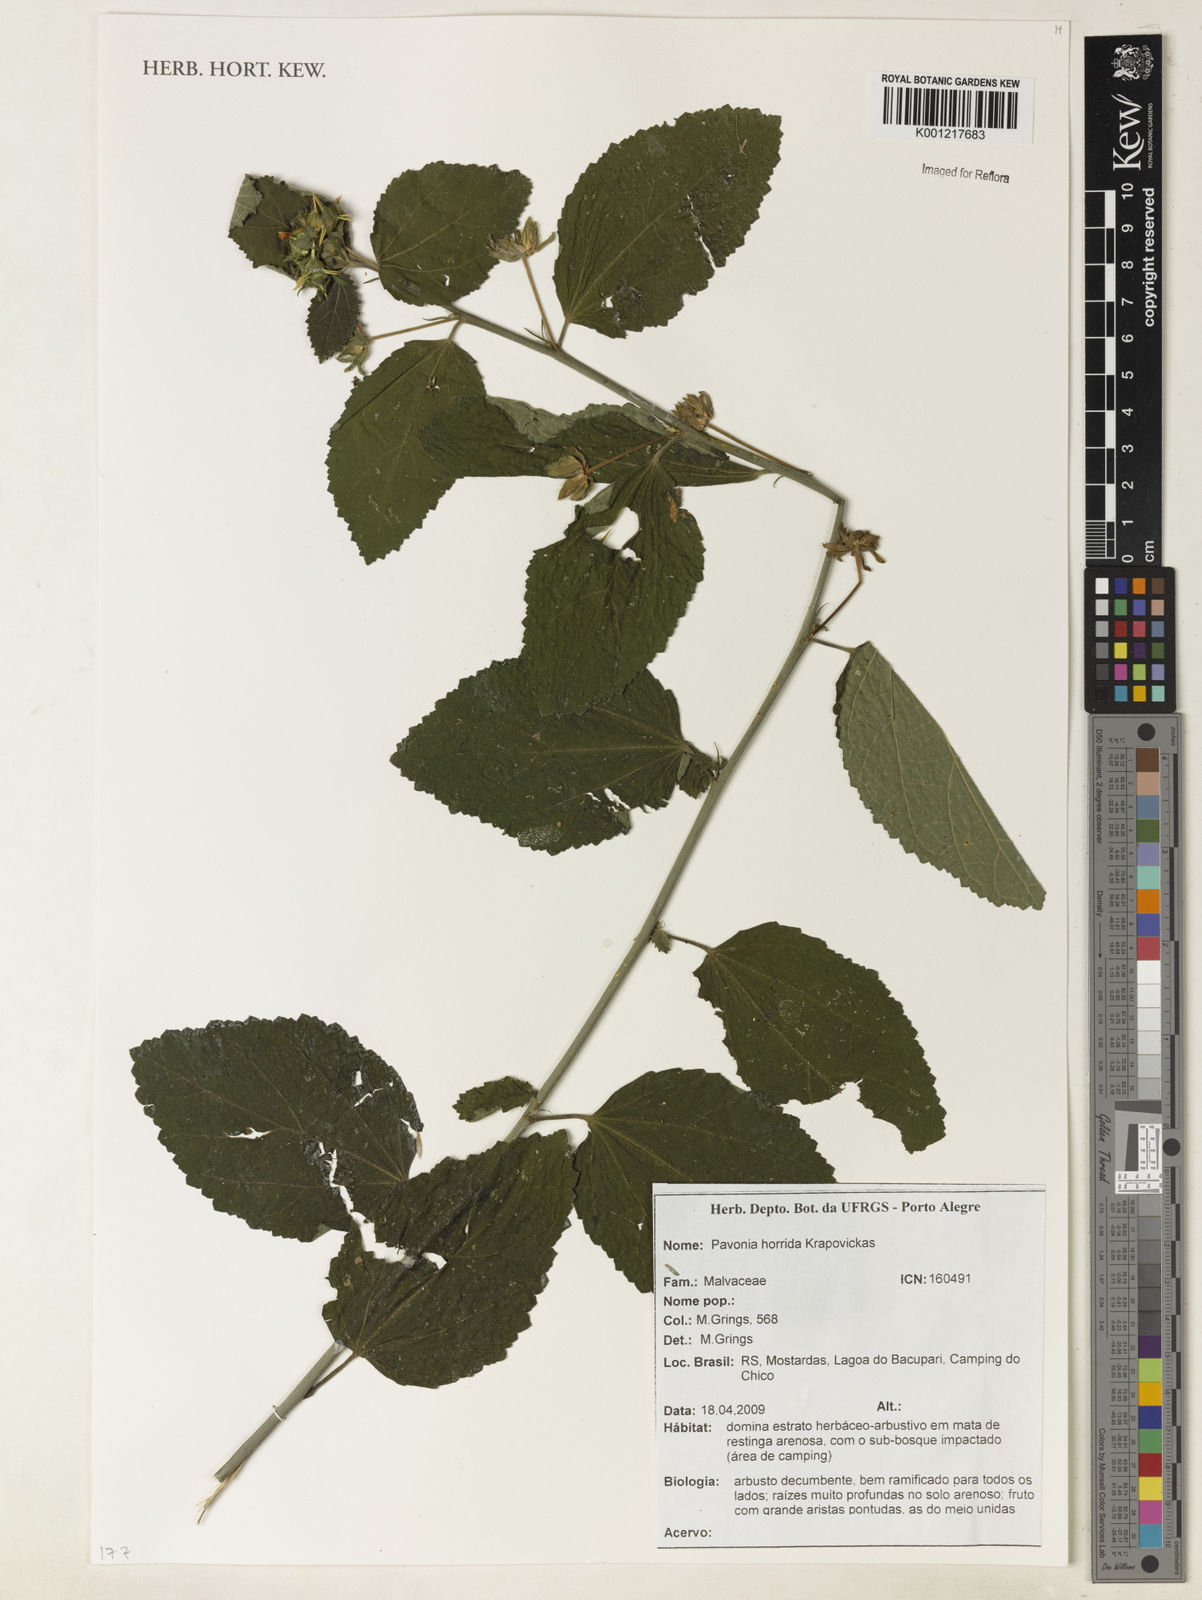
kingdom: Plantae
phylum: Tracheophyta
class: Magnoliopsida
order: Malvales
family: Malvaceae
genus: Pavonia
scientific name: Pavonia horrida
